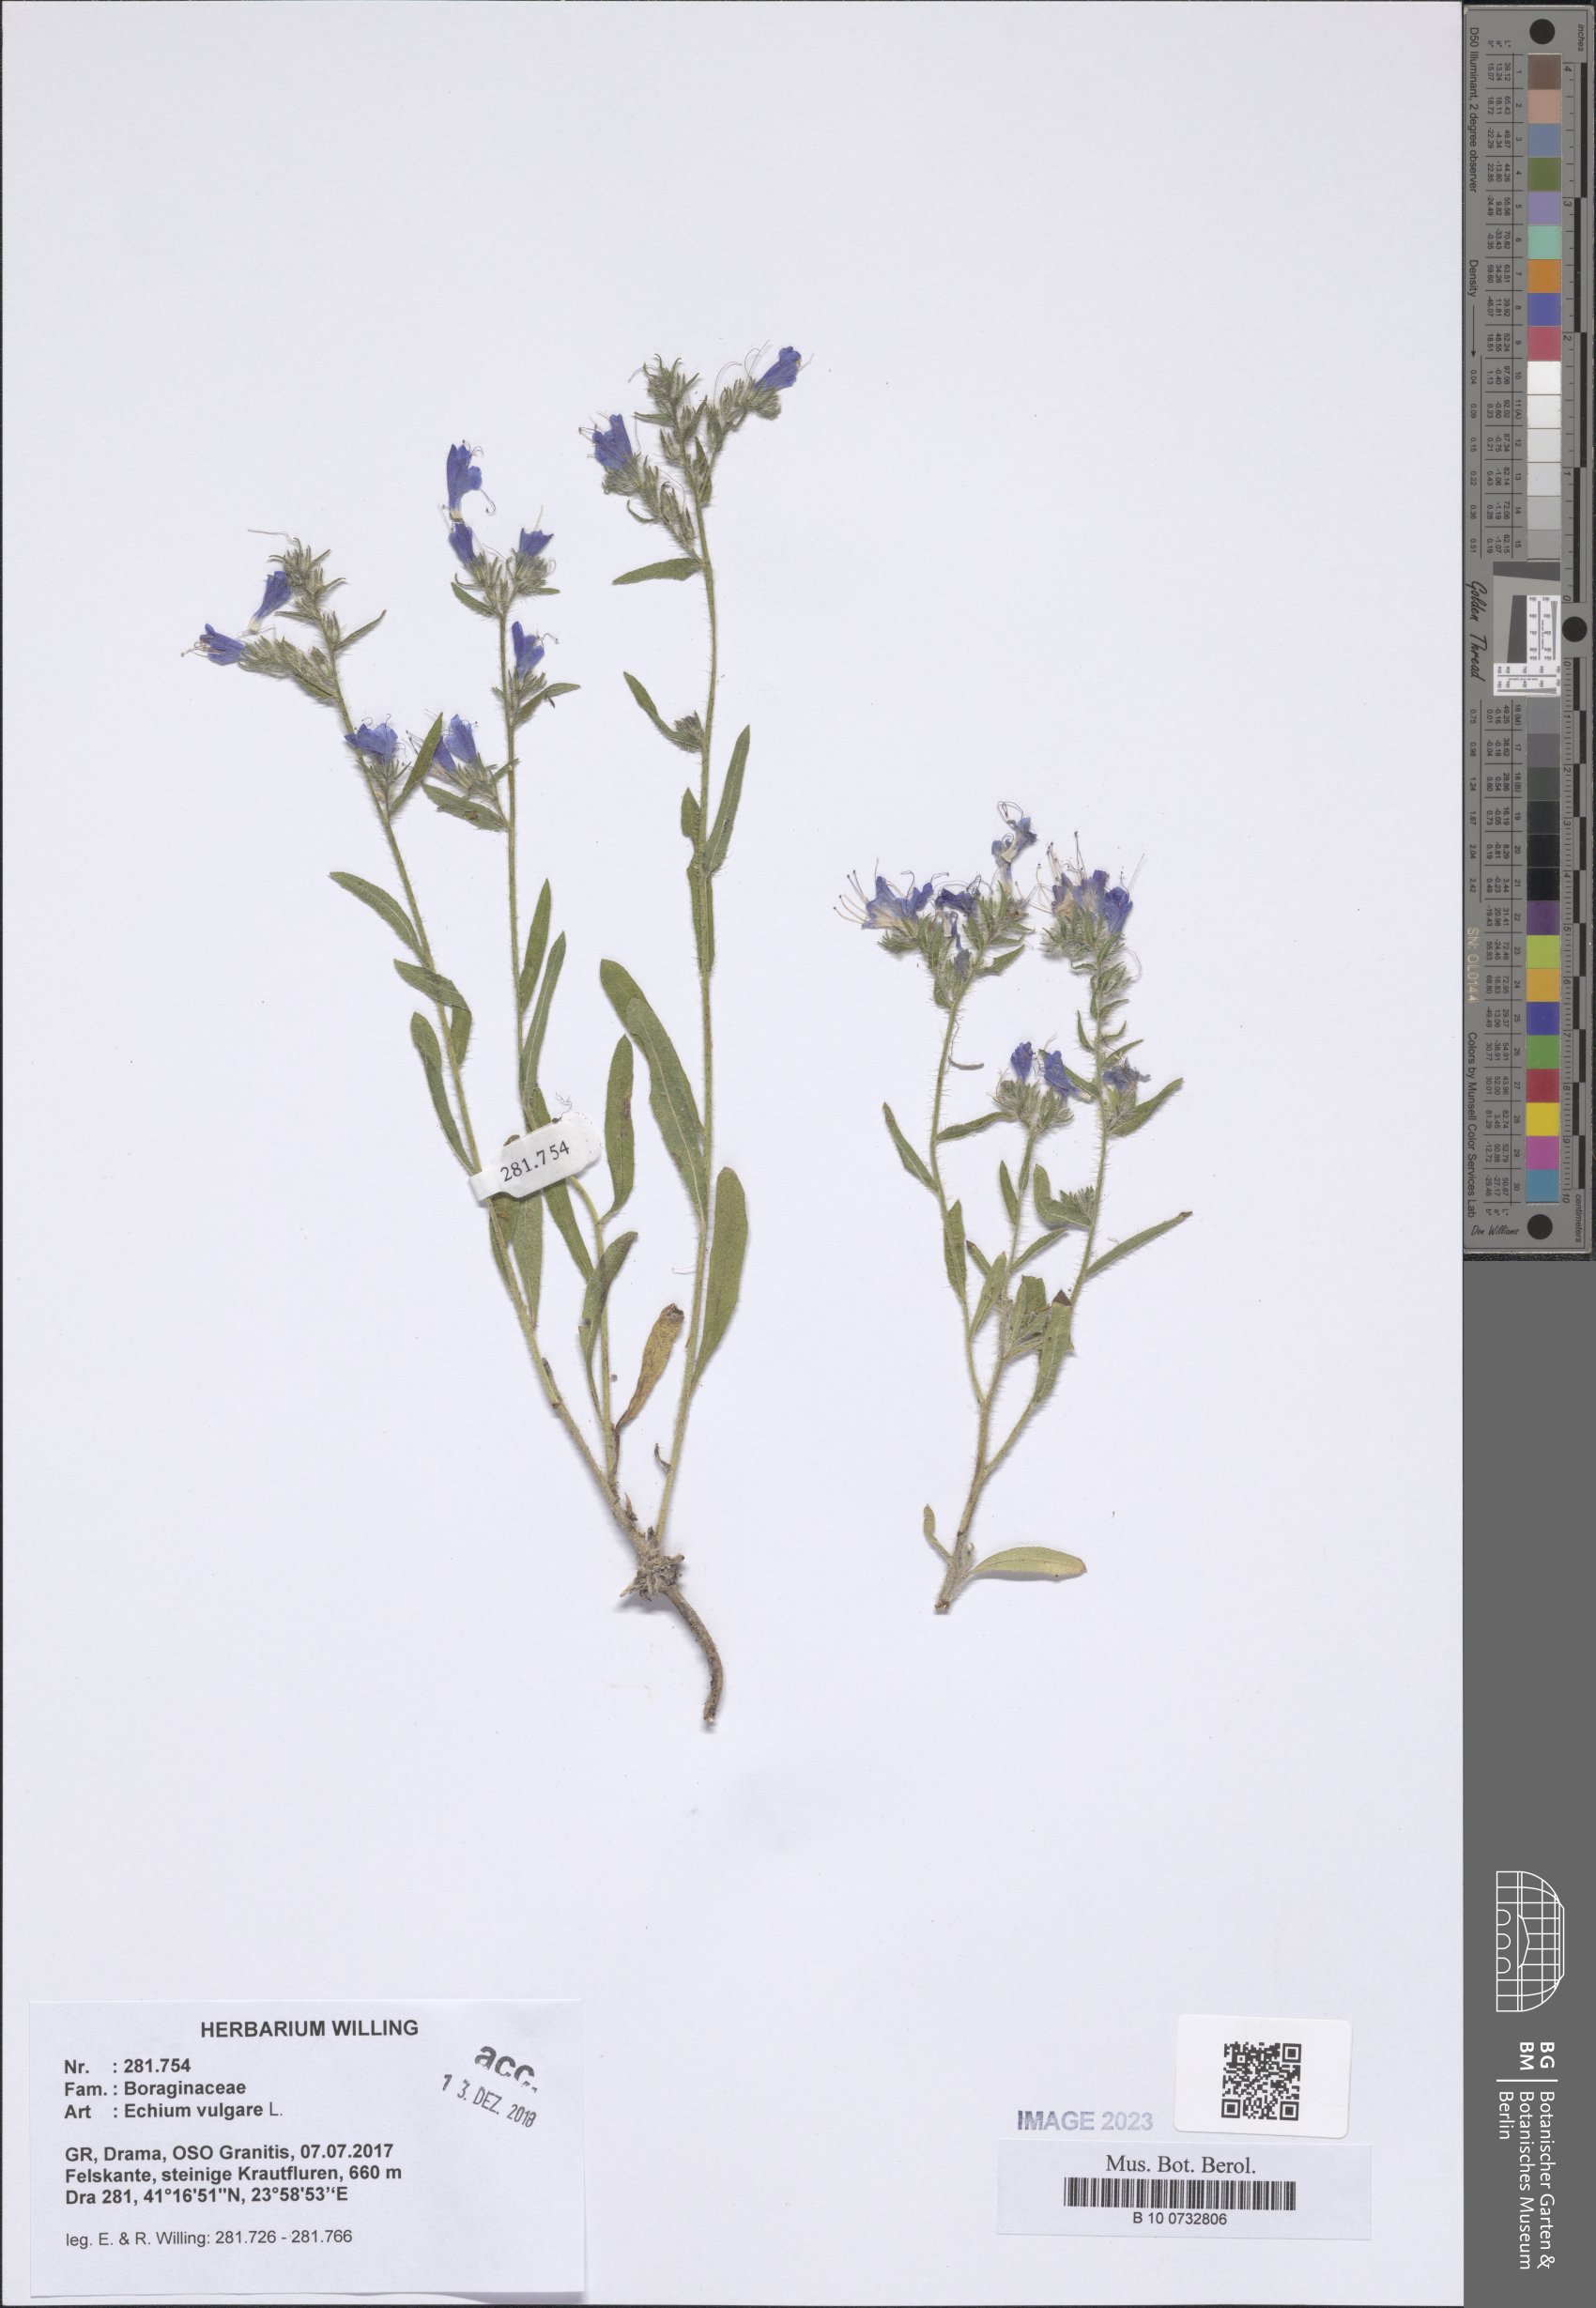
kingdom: Plantae
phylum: Tracheophyta
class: Magnoliopsida
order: Boraginales
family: Boraginaceae
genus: Echium
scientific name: Echium vulgare
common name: Common viper's bugloss
